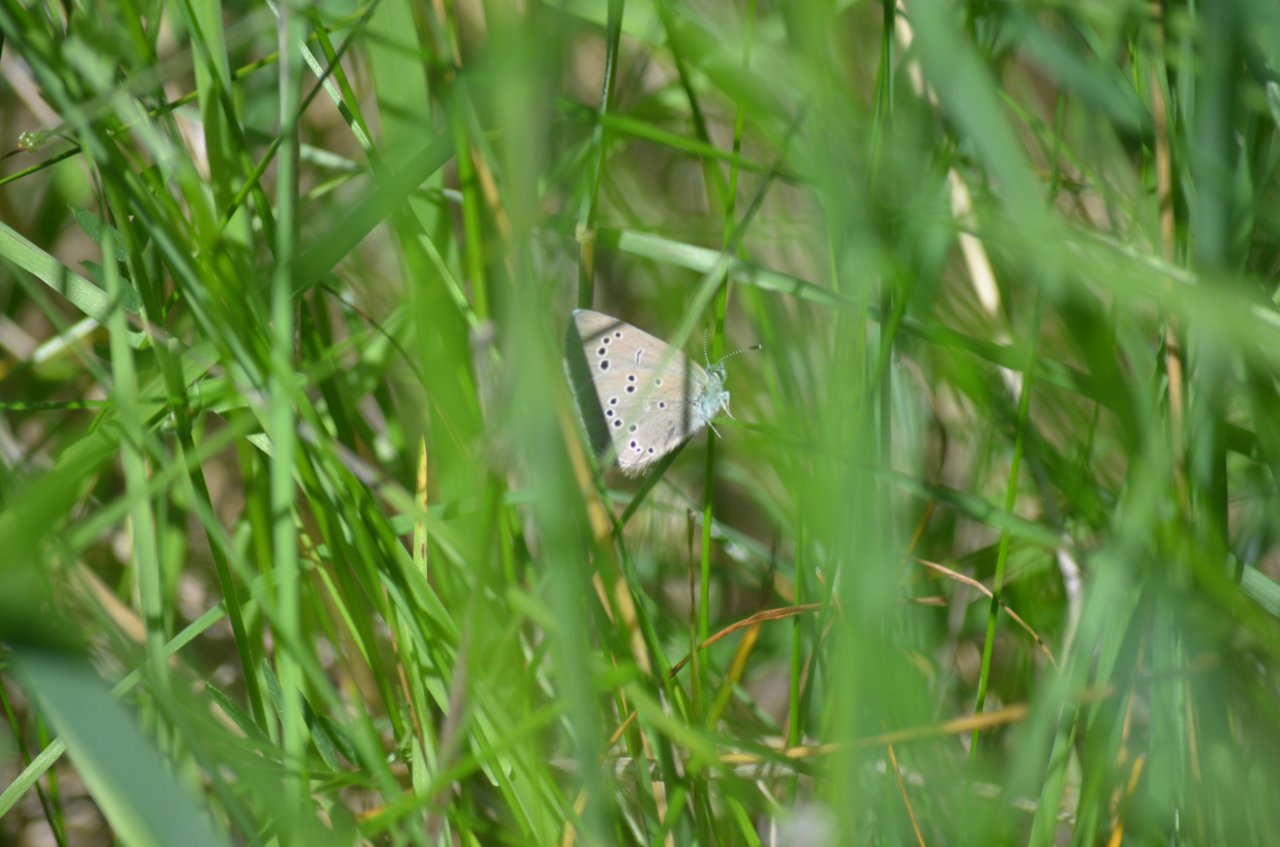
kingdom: Animalia
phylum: Arthropoda
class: Insecta
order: Lepidoptera
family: Lycaenidae
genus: Glaucopsyche
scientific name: Glaucopsyche lygdamus
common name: Silvery Blue
